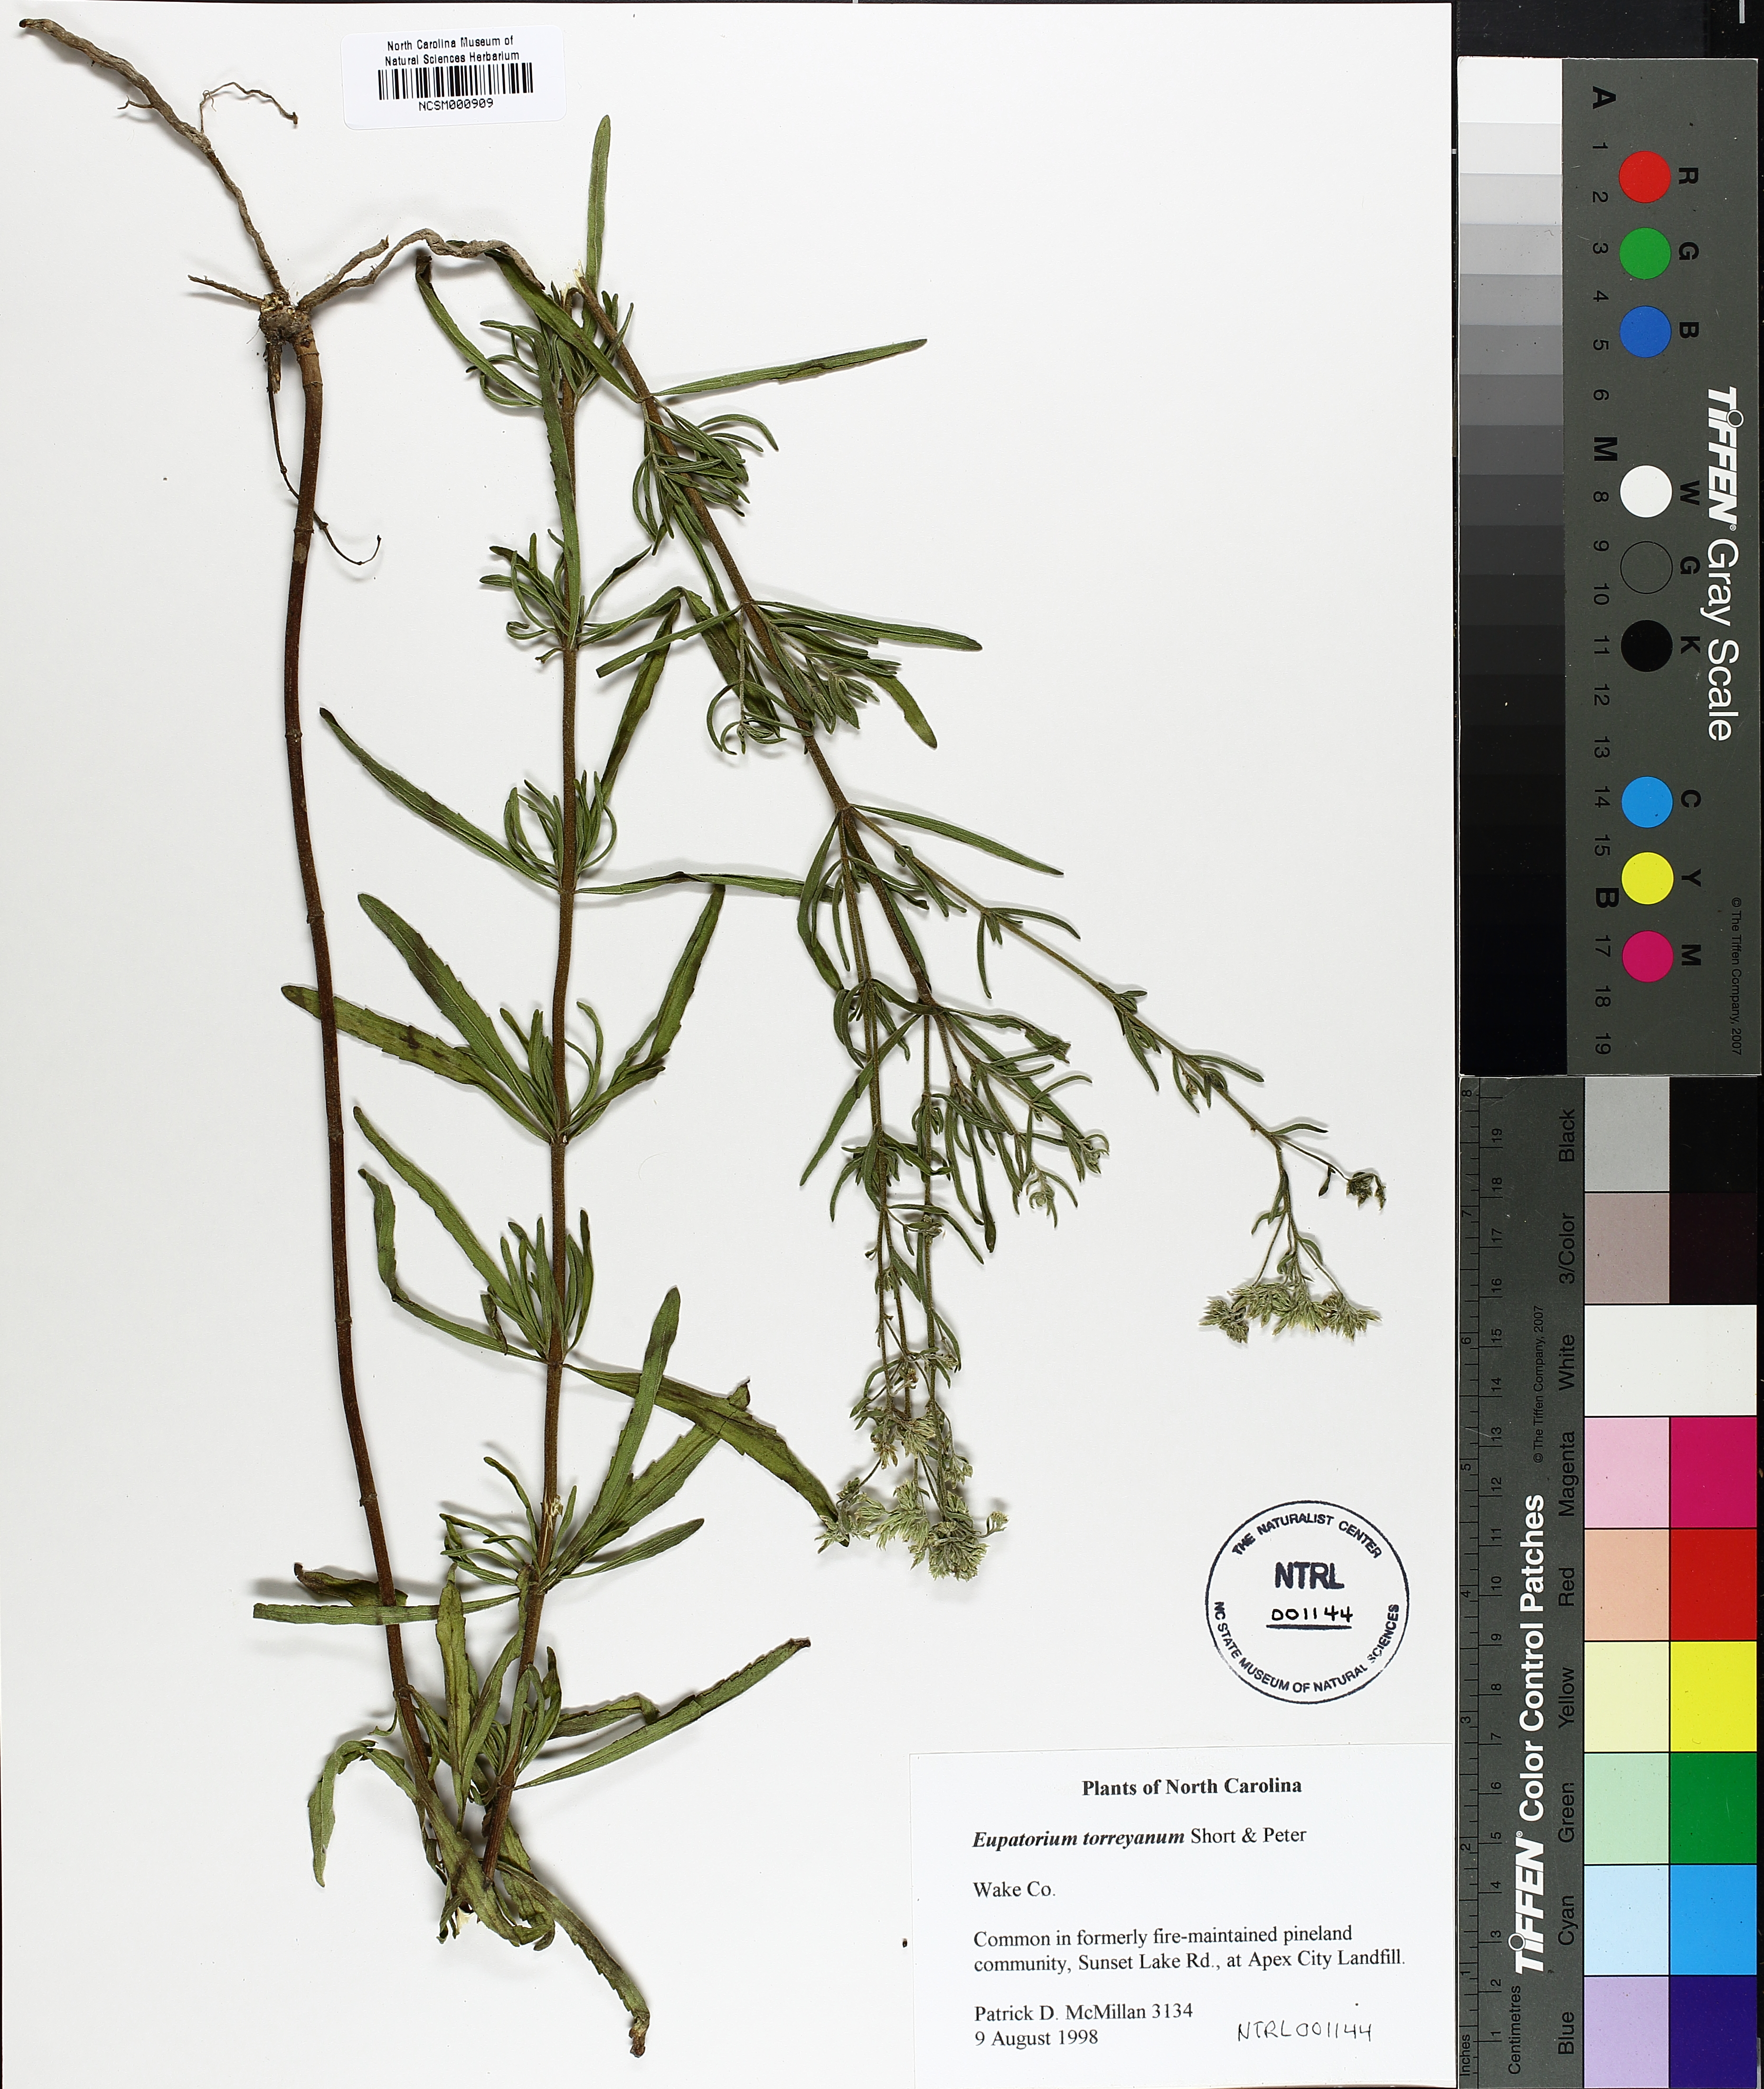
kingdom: Plantae
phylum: Tracheophyta
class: Magnoliopsida
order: Asterales
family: Asteraceae
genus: Eupatorium
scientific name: Eupatorium torreyanum
